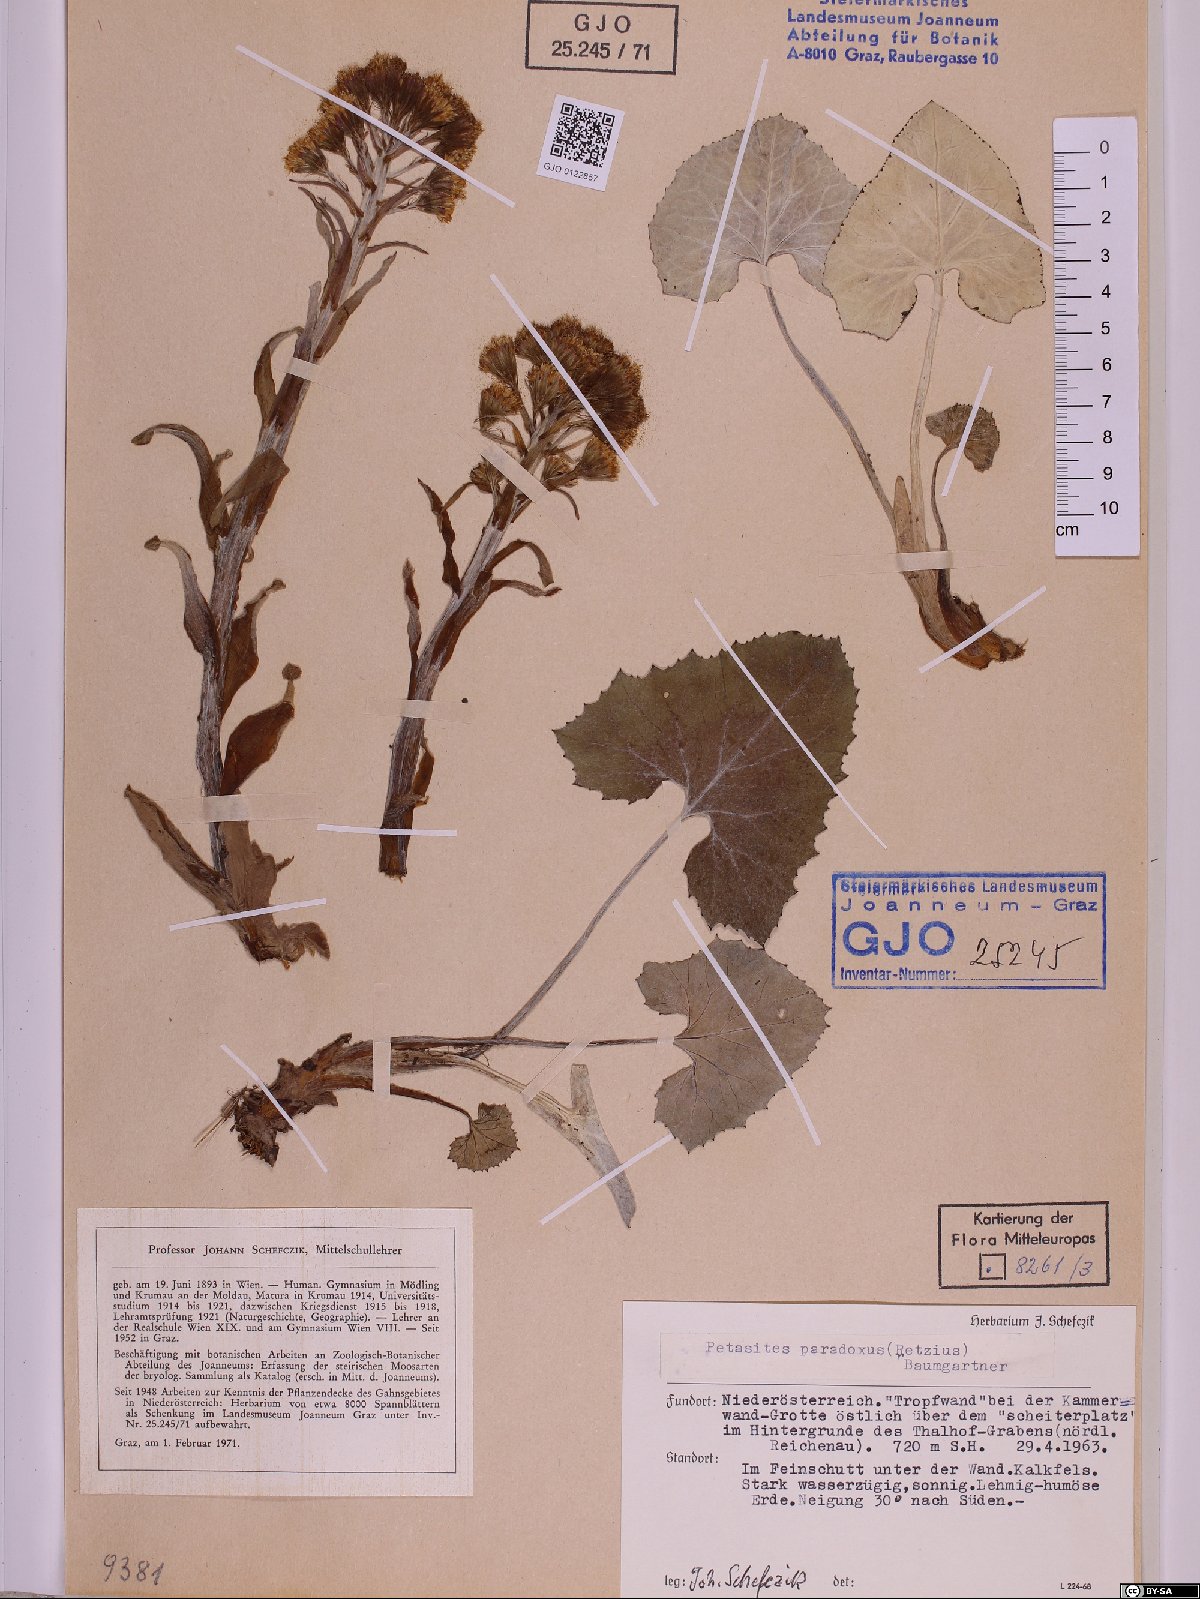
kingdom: Plantae
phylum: Tracheophyta
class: Magnoliopsida
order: Asterales
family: Asteraceae
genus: Petasites
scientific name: Petasites paradoxus
